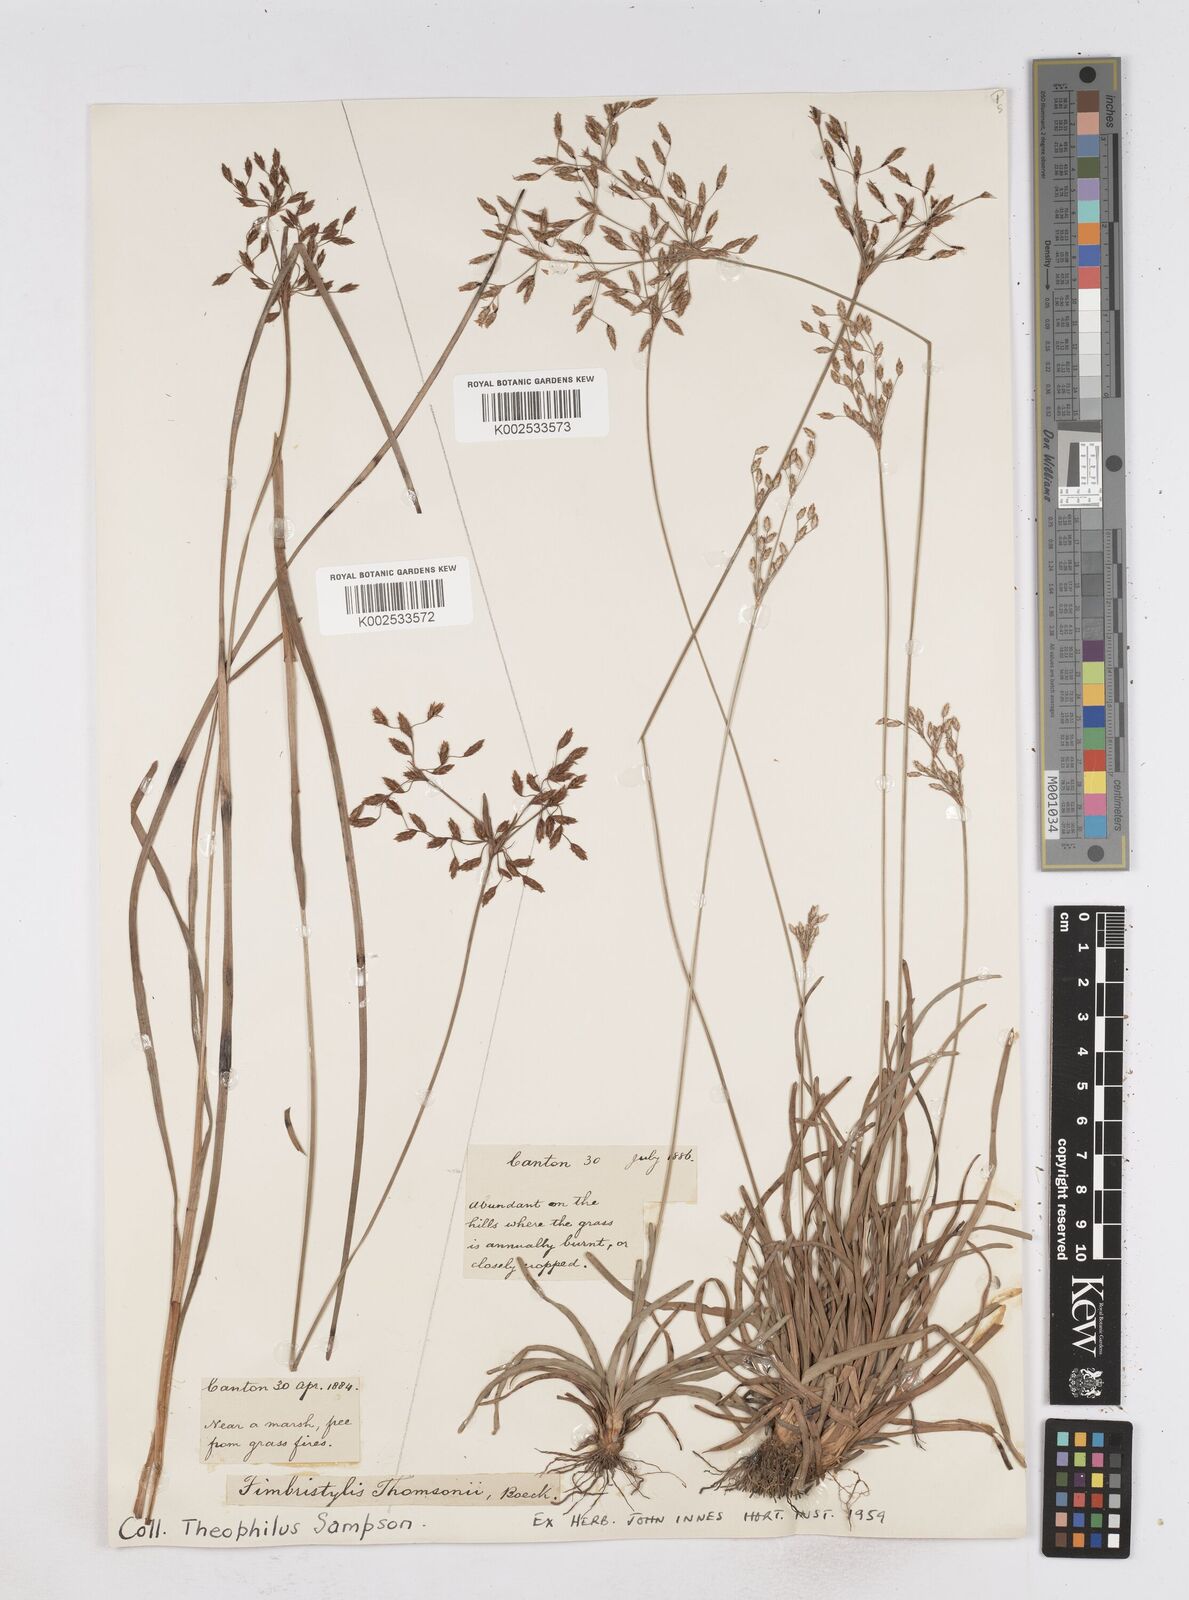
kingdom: Plantae
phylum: Tracheophyta
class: Liliopsida
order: Poales
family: Cyperaceae
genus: Fimbristylis
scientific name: Fimbristylis thomsonii
